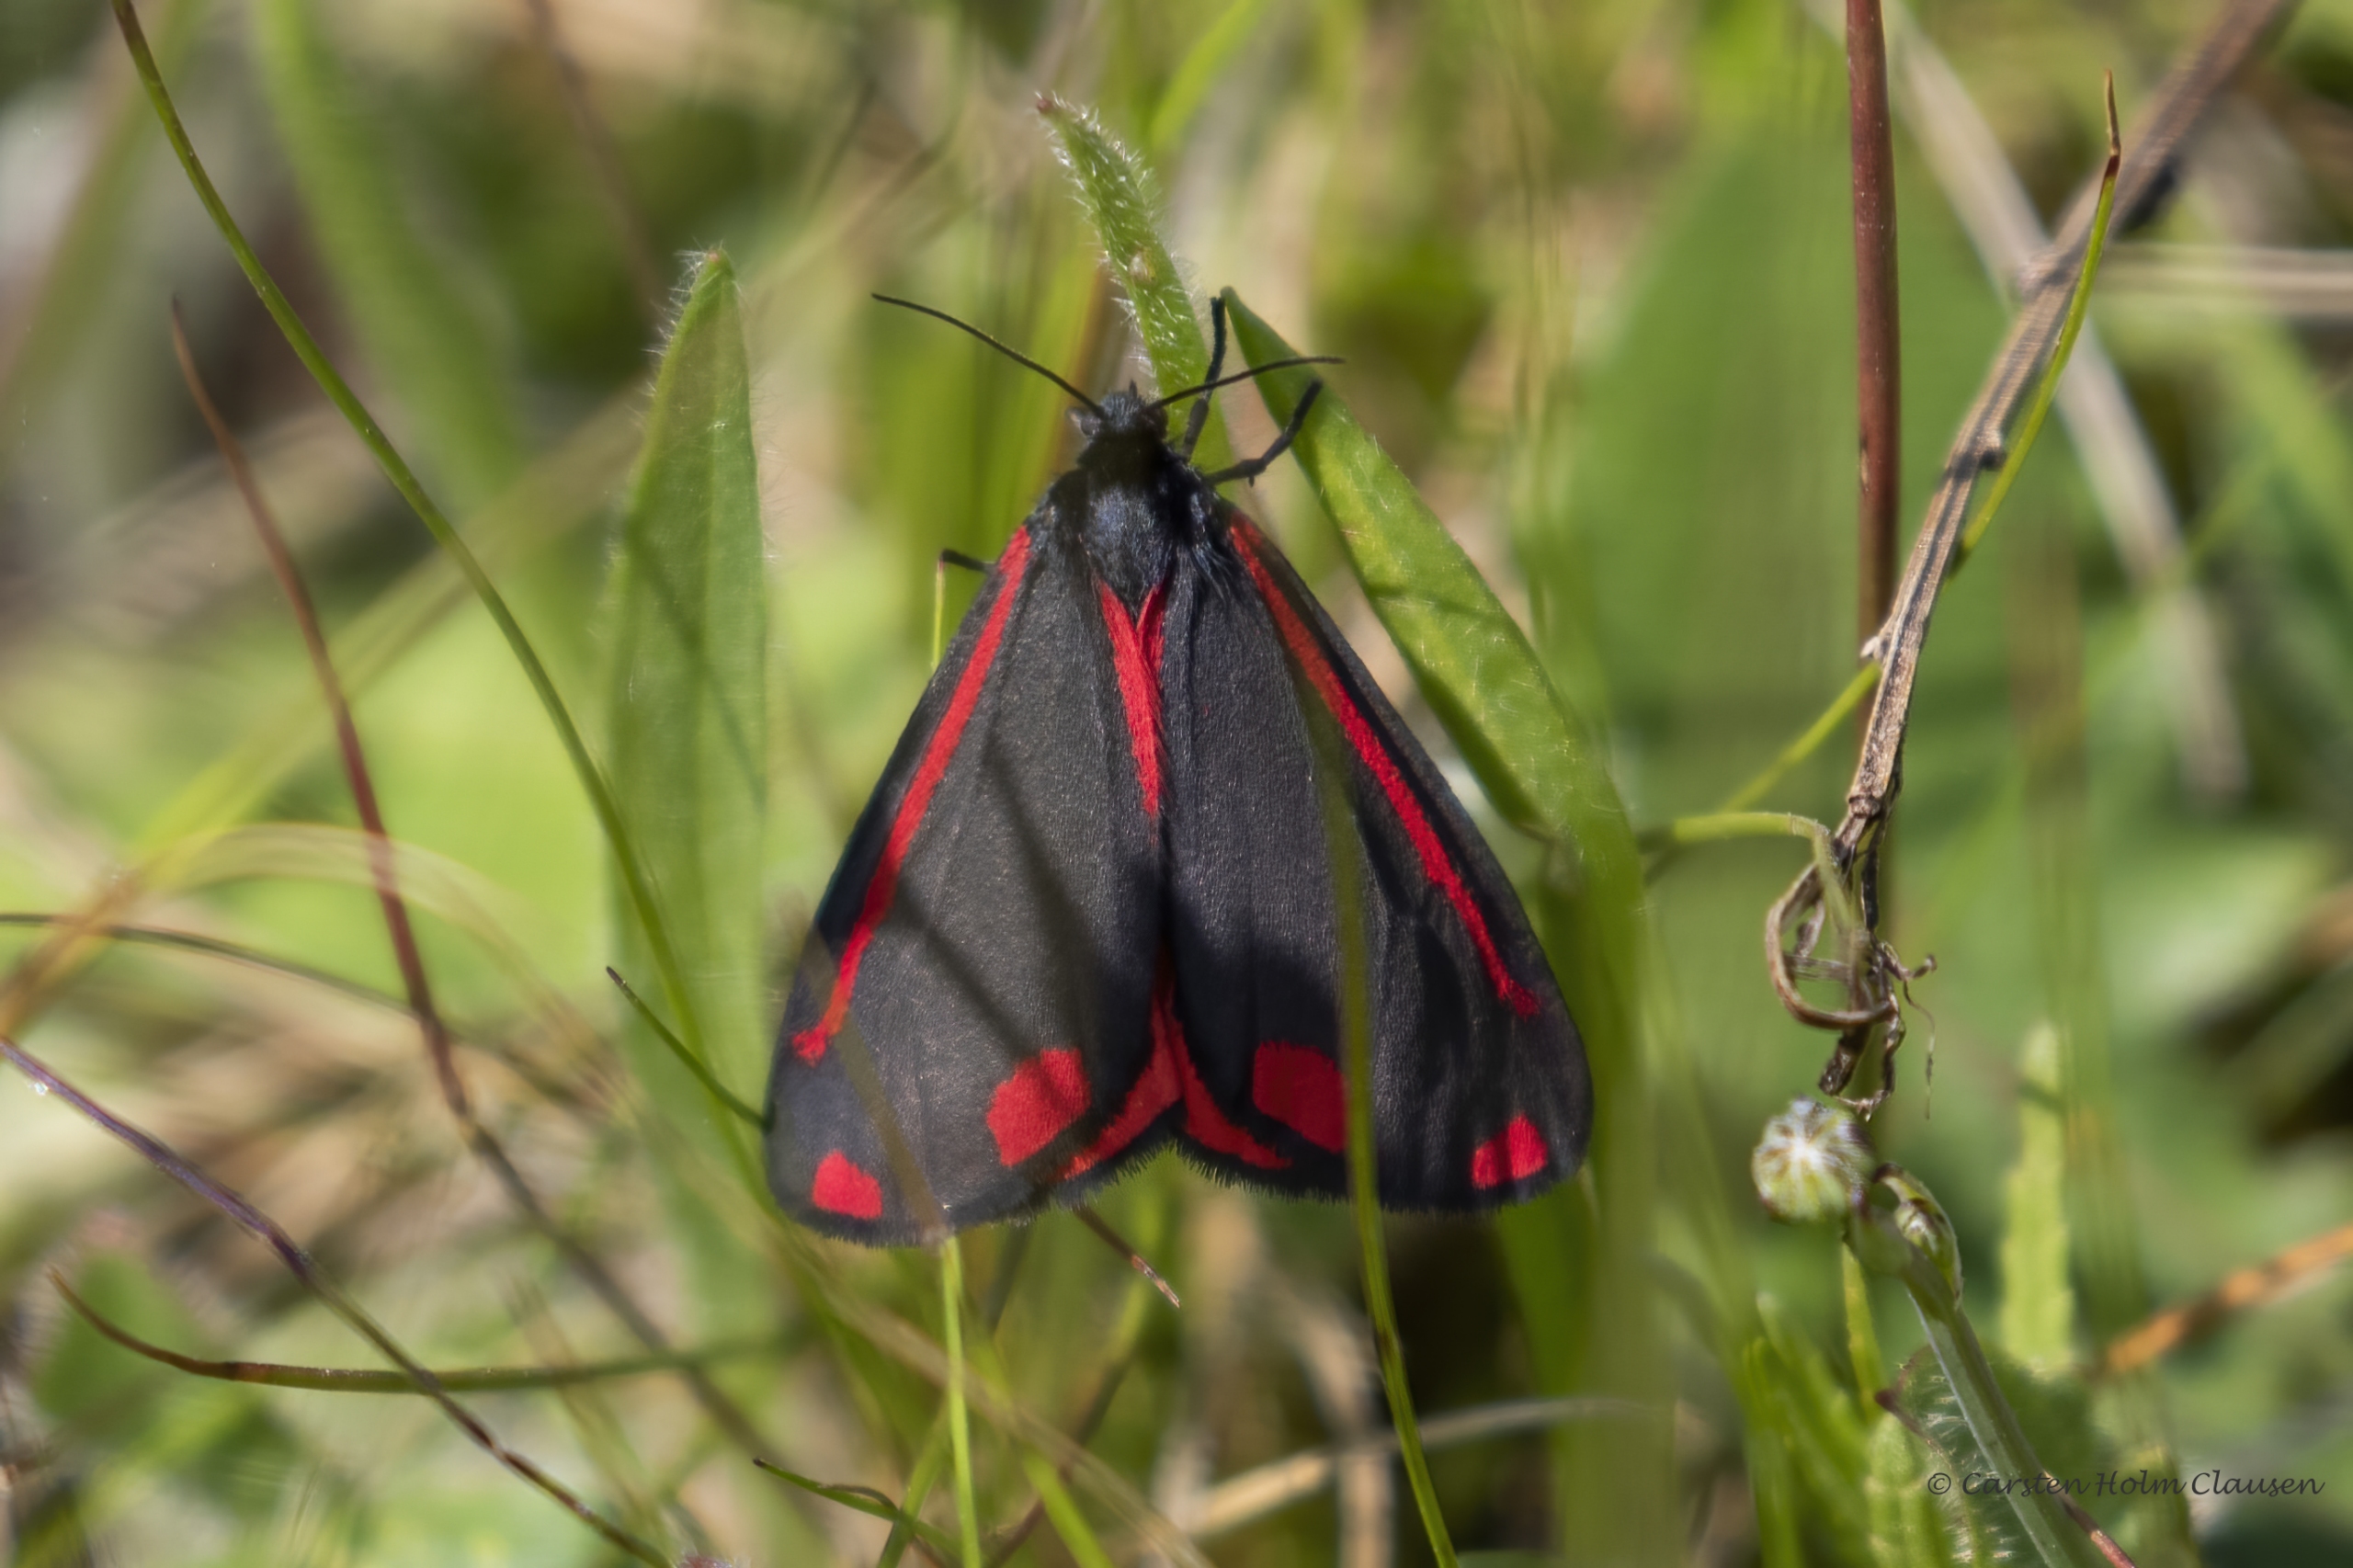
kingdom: Animalia
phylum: Arthropoda
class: Insecta
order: Lepidoptera
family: Erebidae
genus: Tyria
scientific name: Tyria jacobaeae
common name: Blodplet
